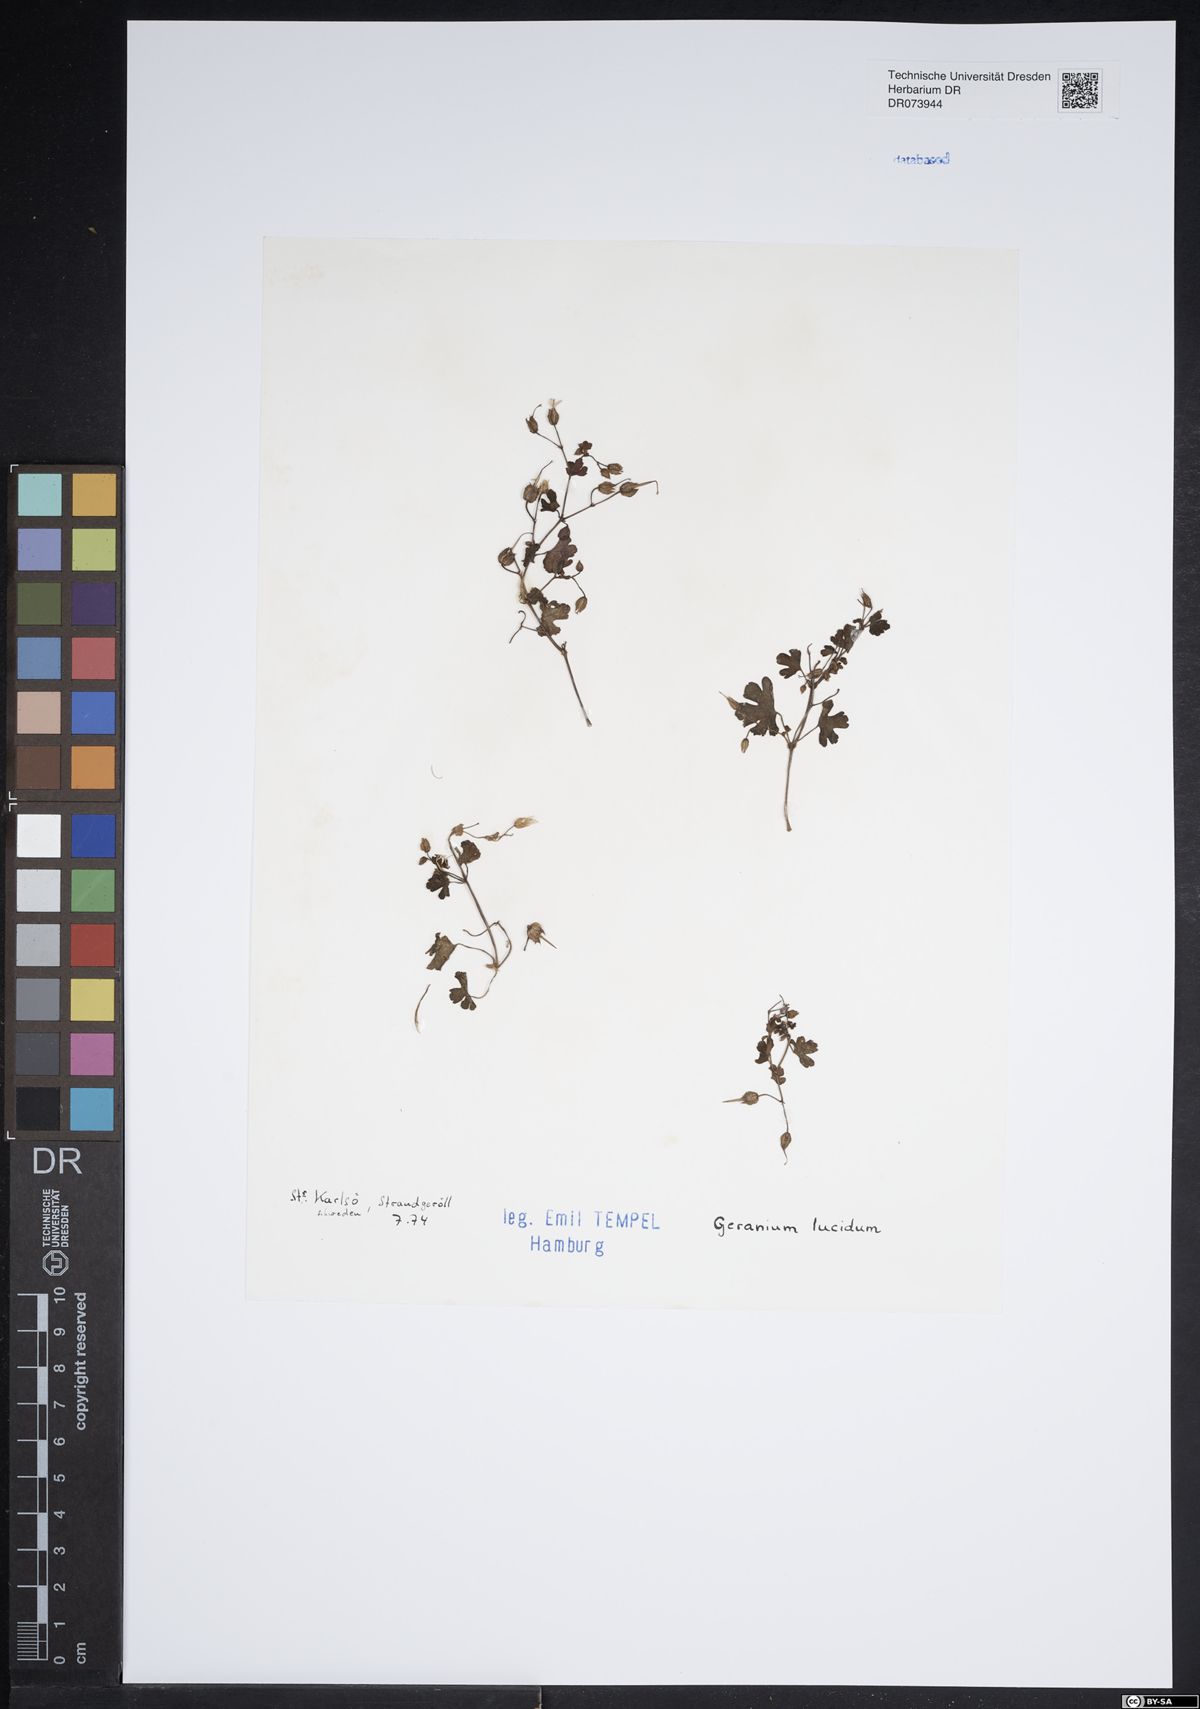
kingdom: Plantae
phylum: Tracheophyta
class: Magnoliopsida
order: Geraniales
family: Geraniaceae
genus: Geranium
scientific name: Geranium lucidum
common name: Shining crane's-bill
